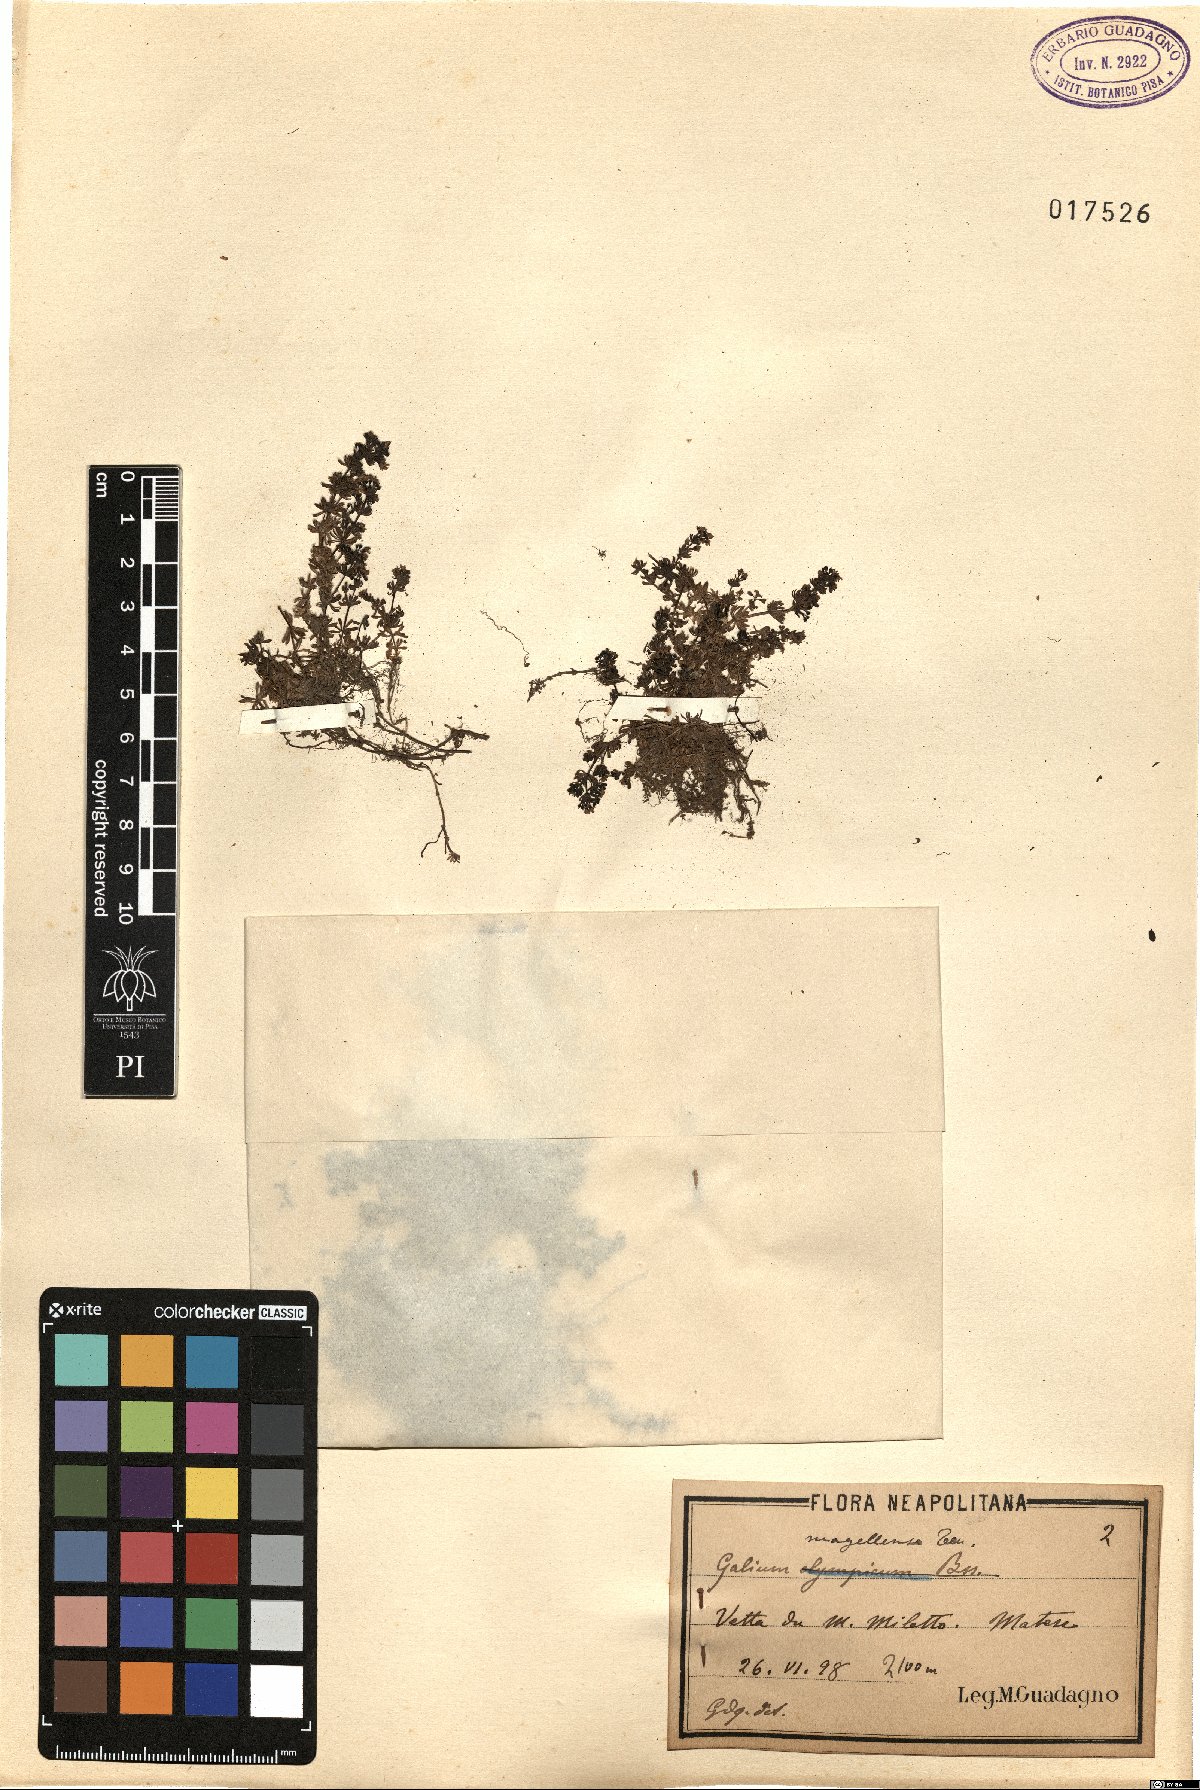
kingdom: Plantae
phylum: Tracheophyta
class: Magnoliopsida
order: Gentianales
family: Rubiaceae
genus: Galium
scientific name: Galium magellense
